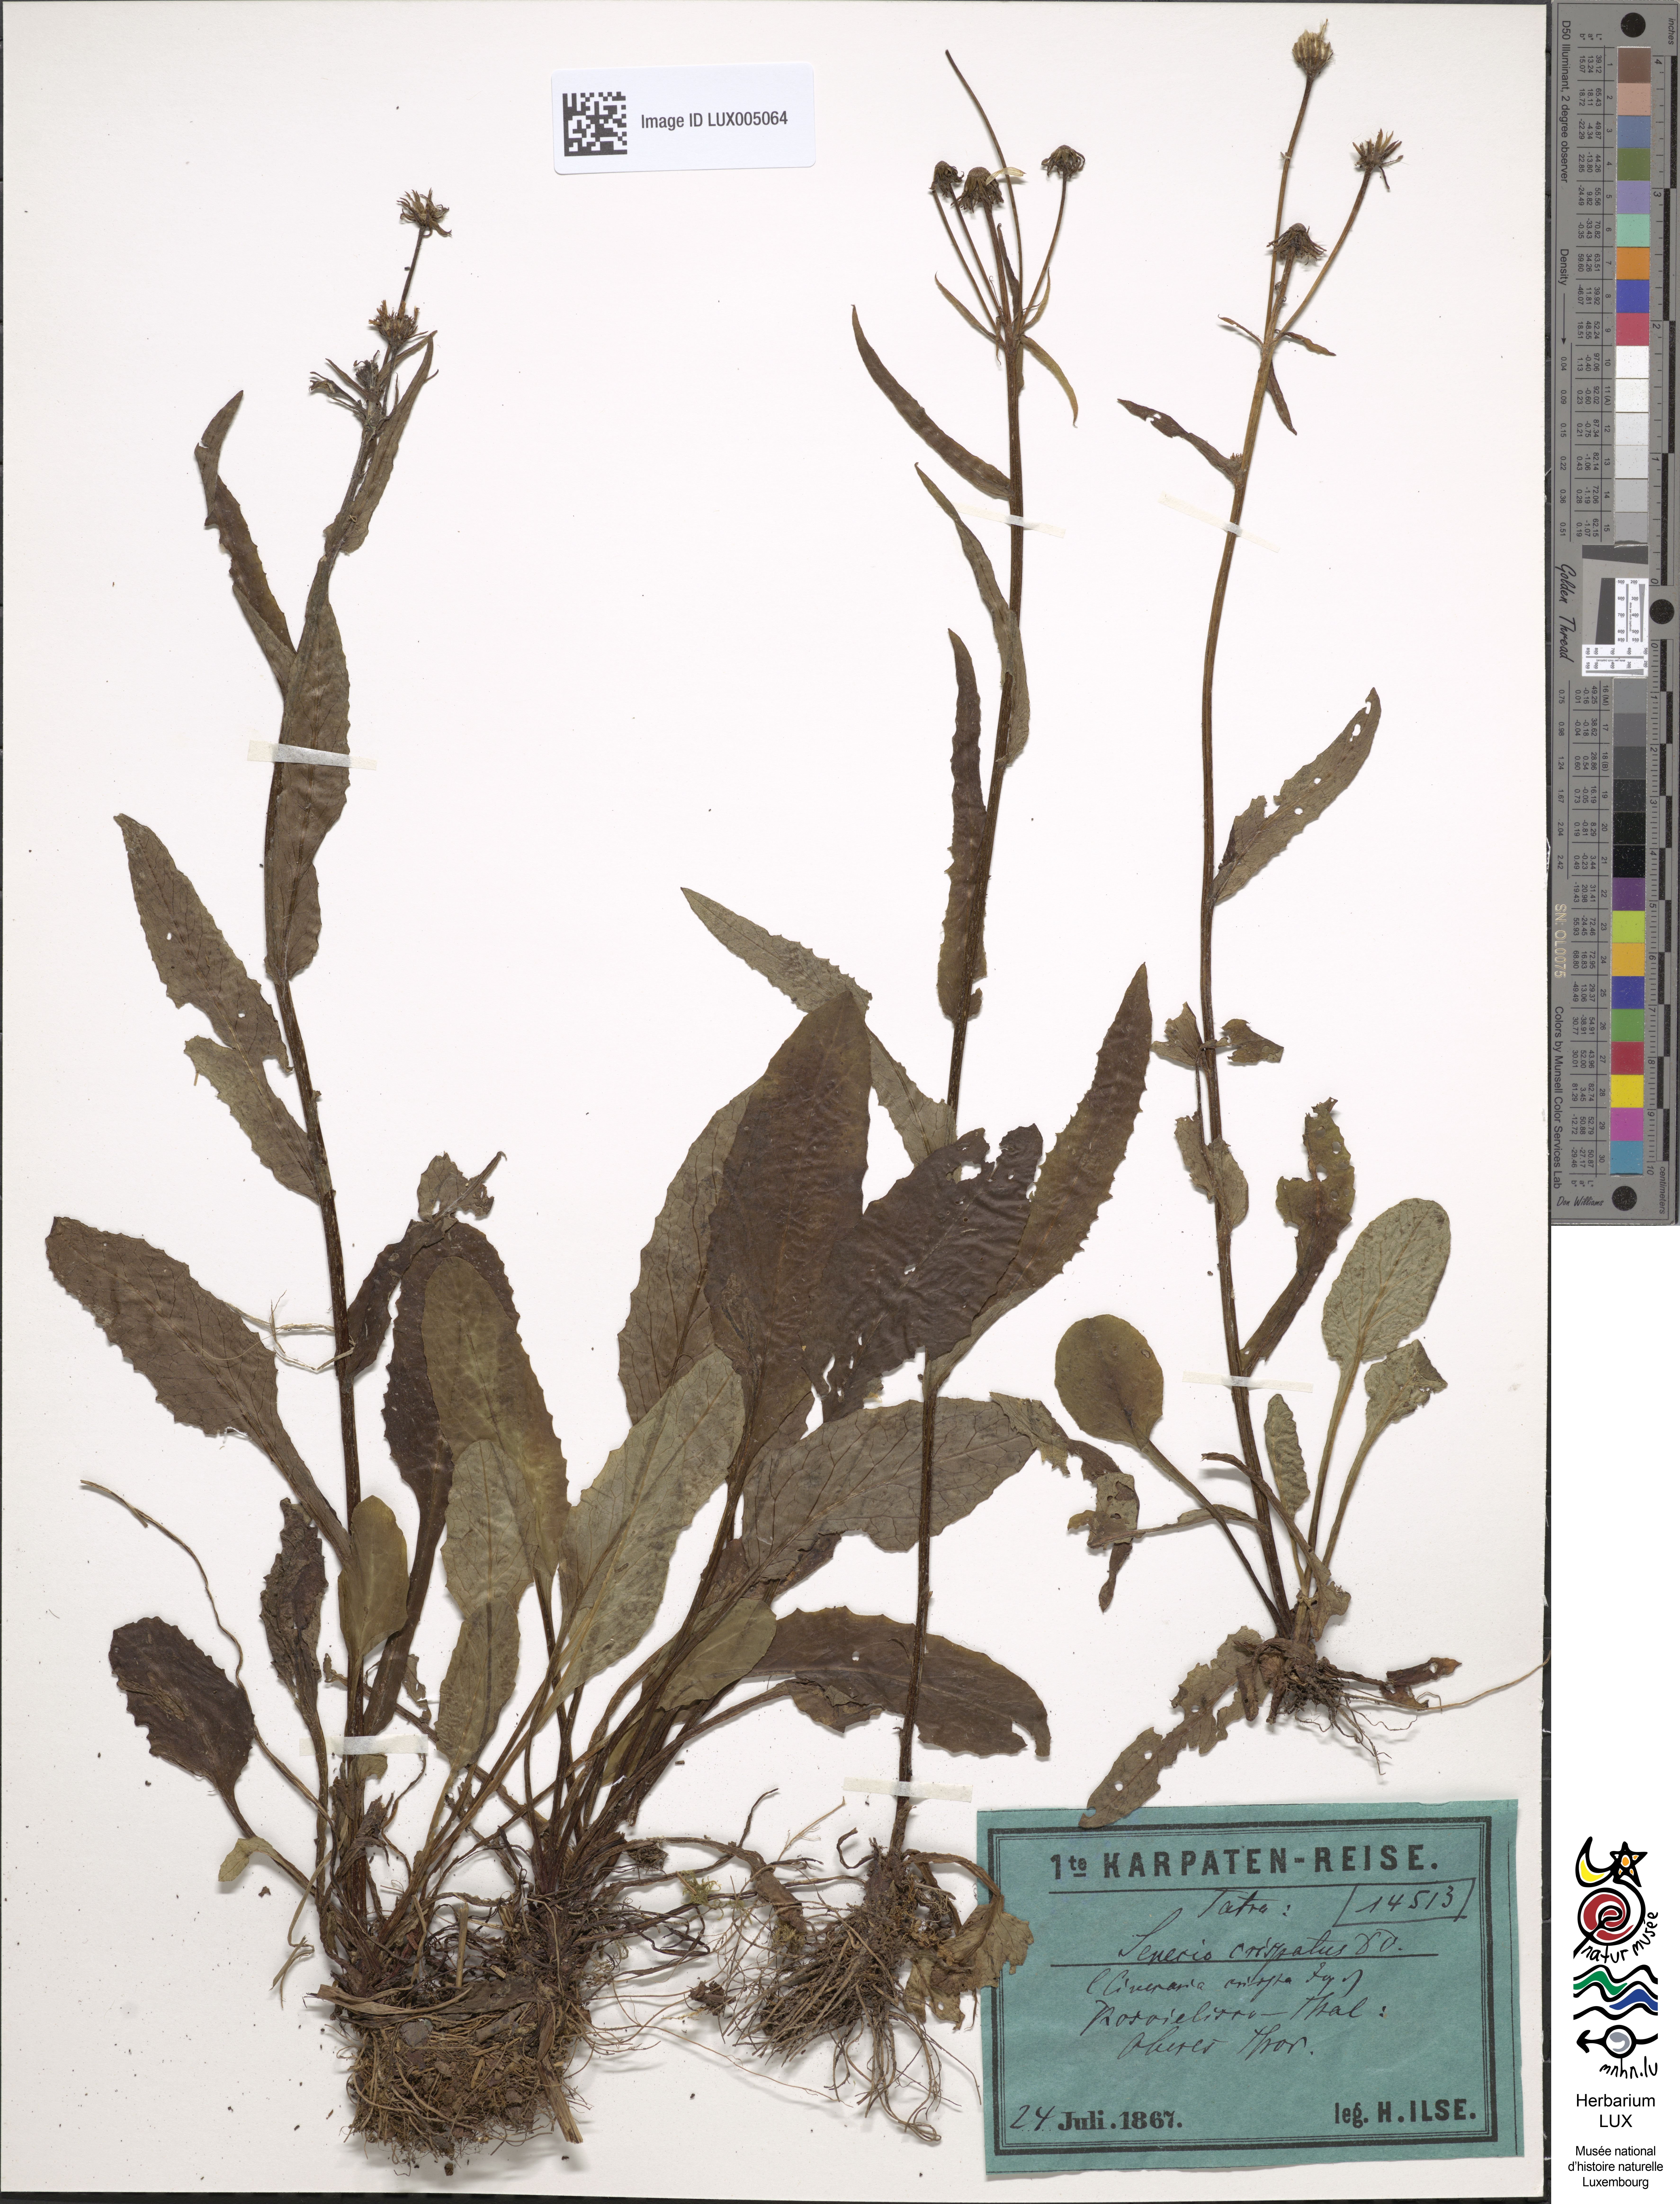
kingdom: Plantae
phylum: Tracheophyta
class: Magnoliopsida
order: Asterales
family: Asteraceae
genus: Senecio
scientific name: Senecio peripotamus
